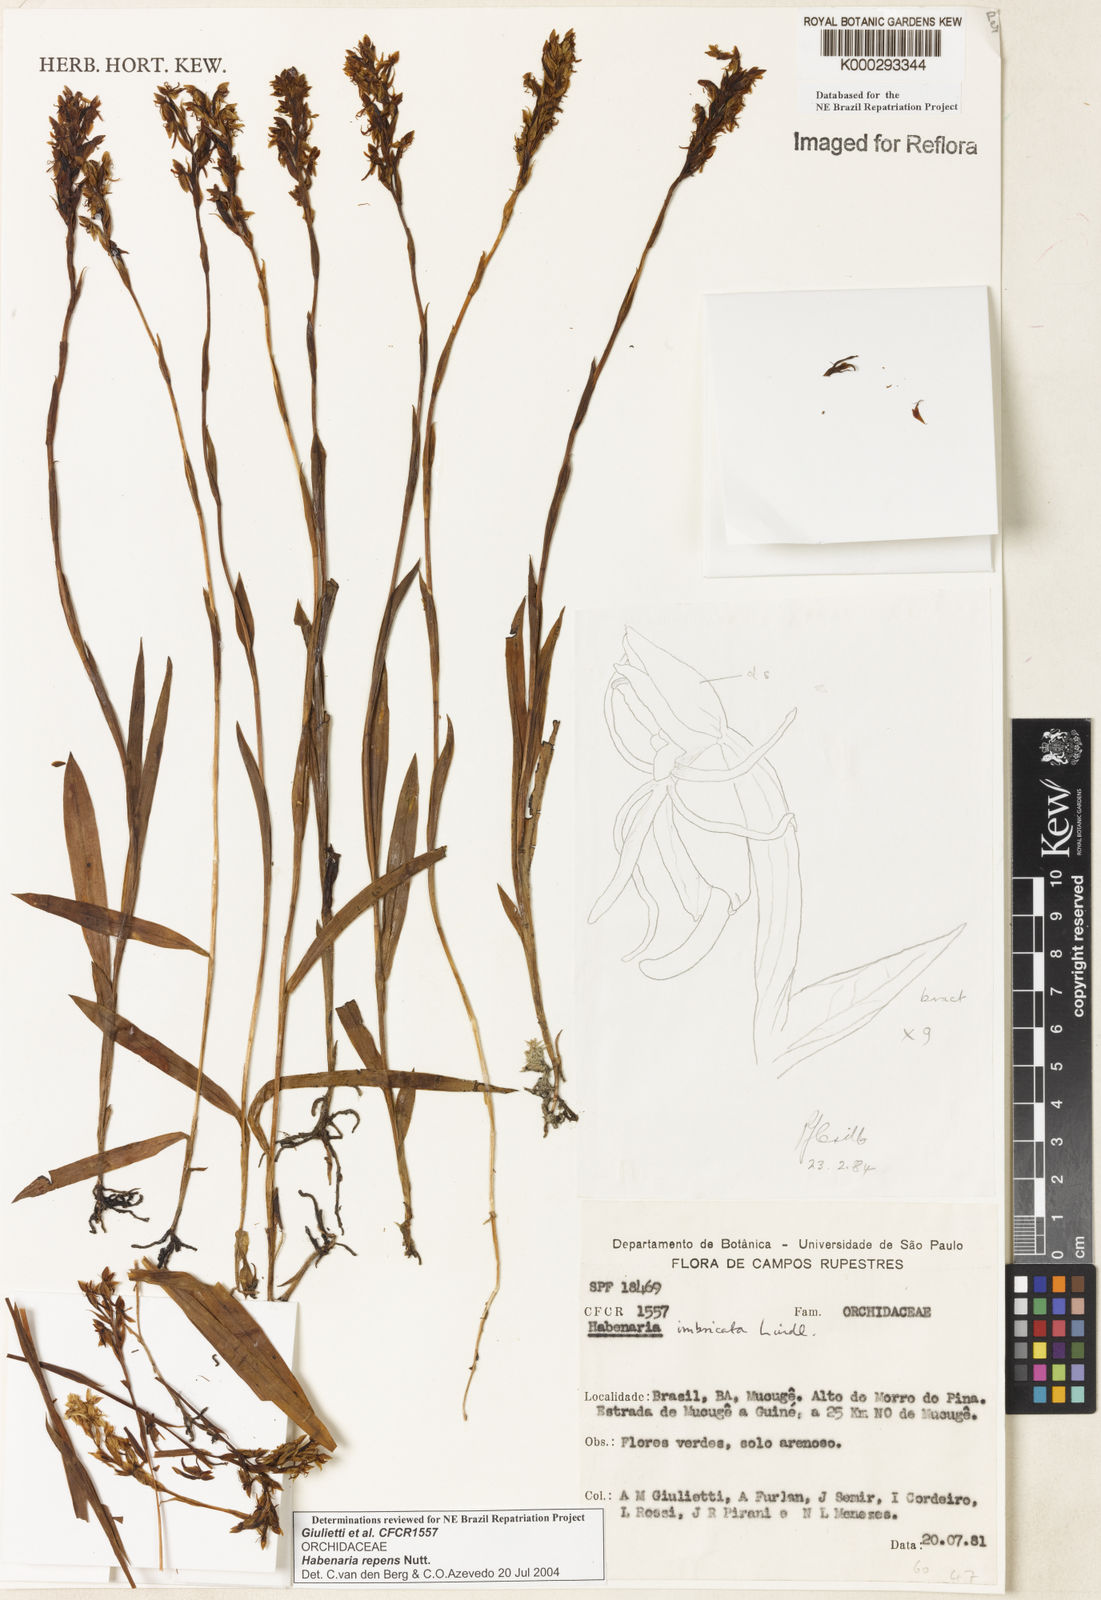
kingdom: Plantae
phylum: Tracheophyta
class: Liliopsida
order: Asparagales
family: Orchidaceae
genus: Habenaria
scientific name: Habenaria repens
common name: Water orchid
